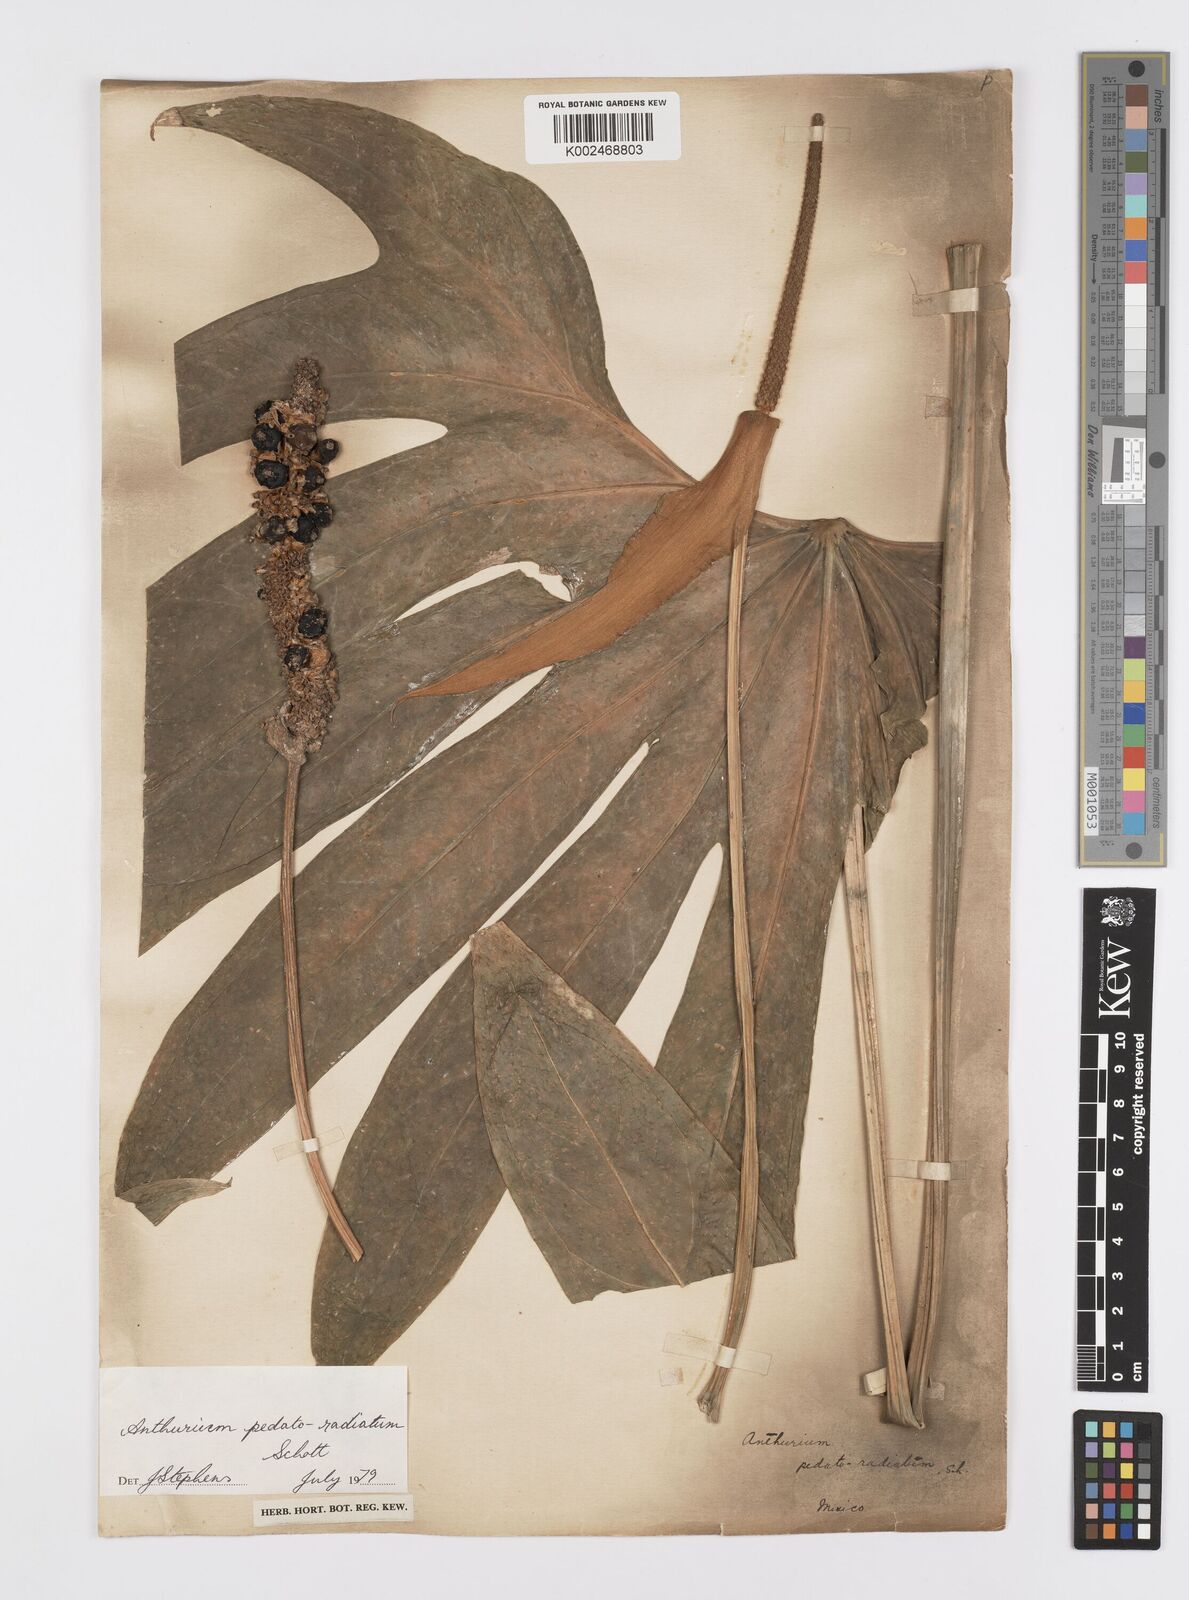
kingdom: Plantae
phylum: Tracheophyta
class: Liliopsida
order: Alismatales
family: Araceae
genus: Anthurium
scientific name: Anthurium pedatoradiatum
